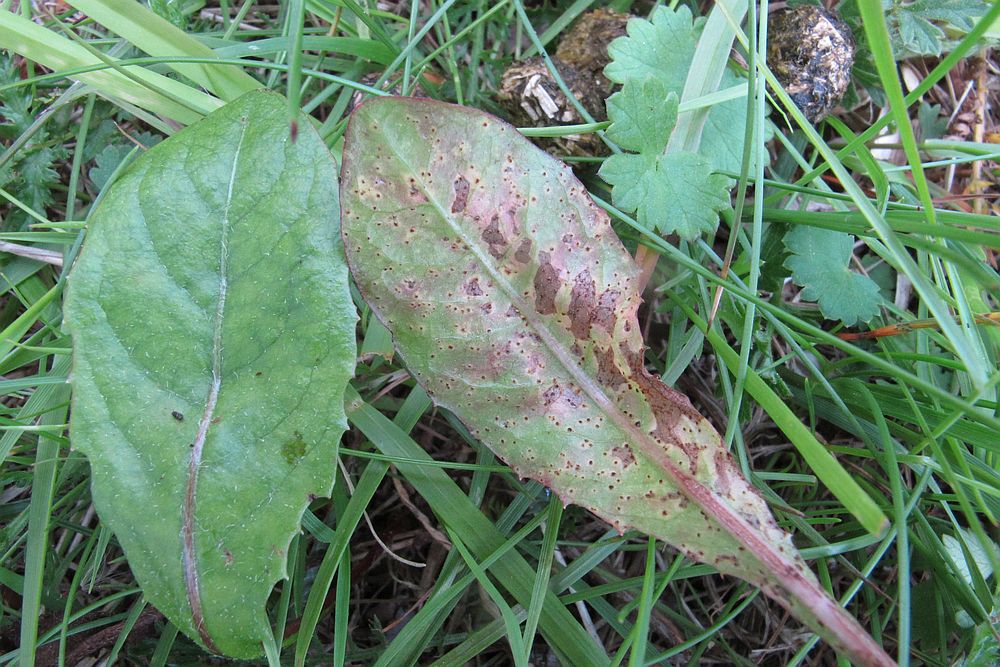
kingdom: Fungi
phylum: Basidiomycota
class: Pucciniomycetes
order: Pucciniales
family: Pucciniaceae
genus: Puccinia
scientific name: Puccinia variabilis
